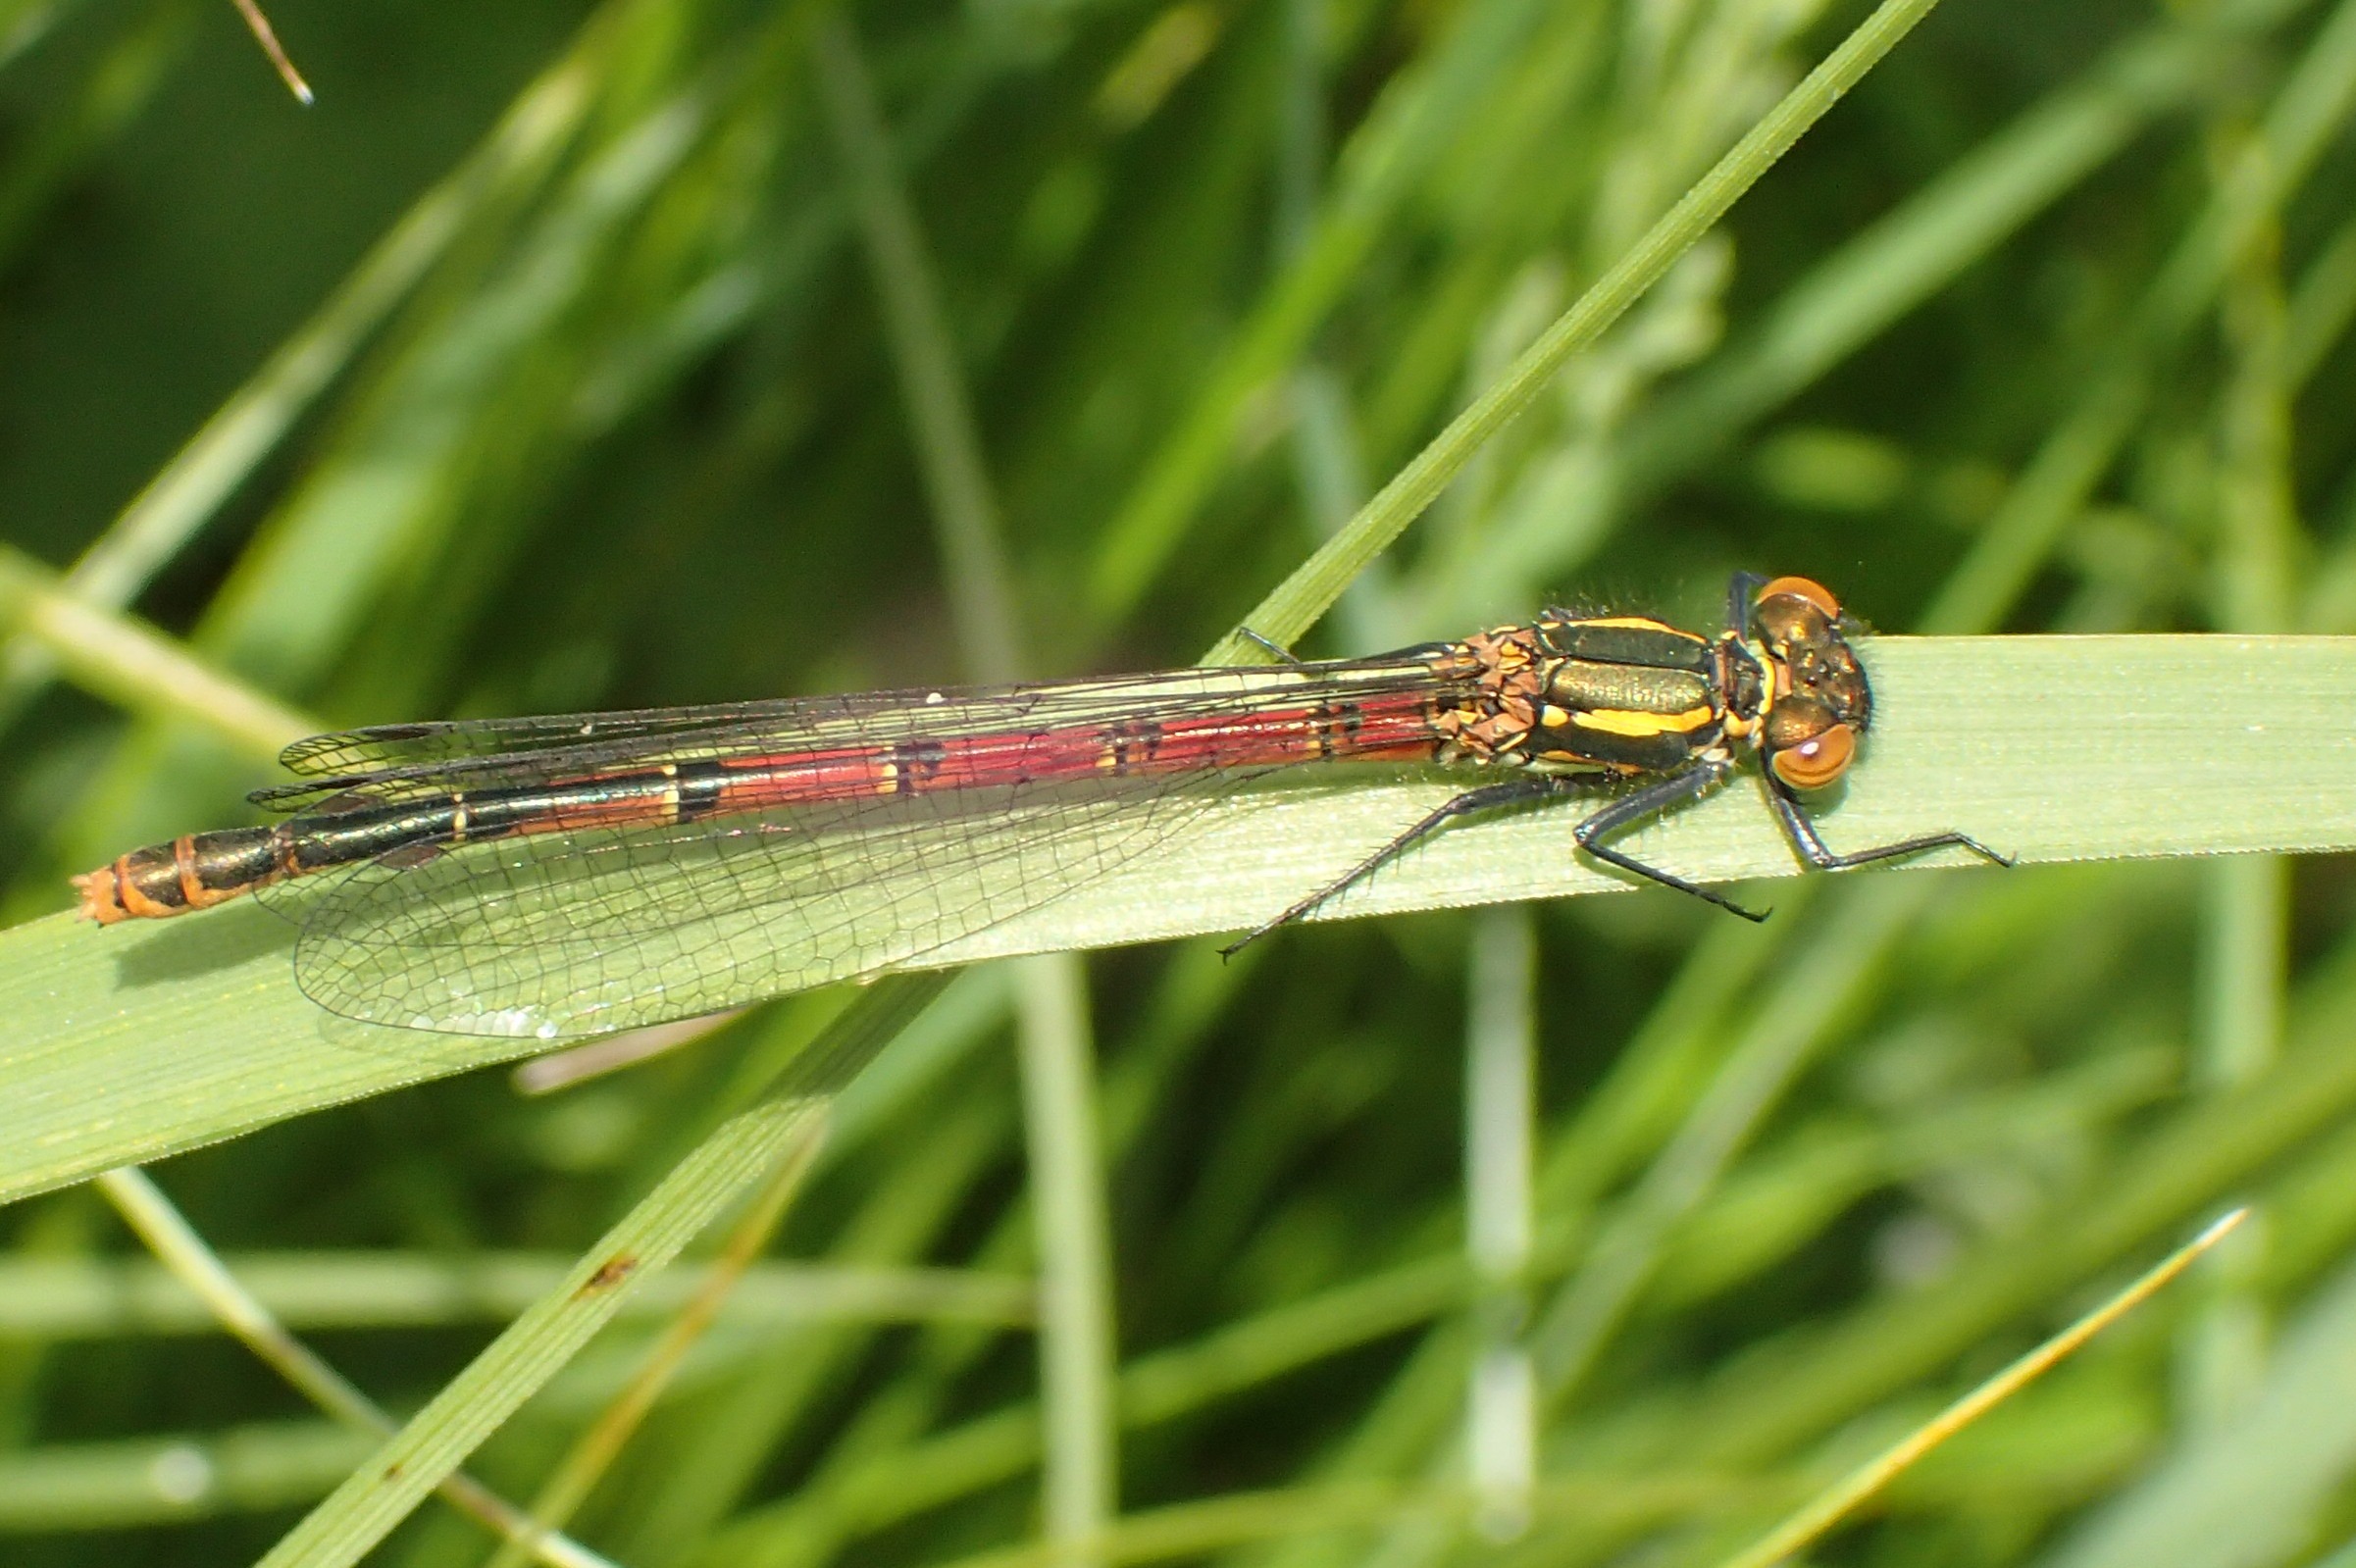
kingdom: Animalia
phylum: Arthropoda
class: Insecta
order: Odonata
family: Coenagrionidae
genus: Pyrrhosoma
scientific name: Pyrrhosoma nymphula
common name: Rød vandnymfe
